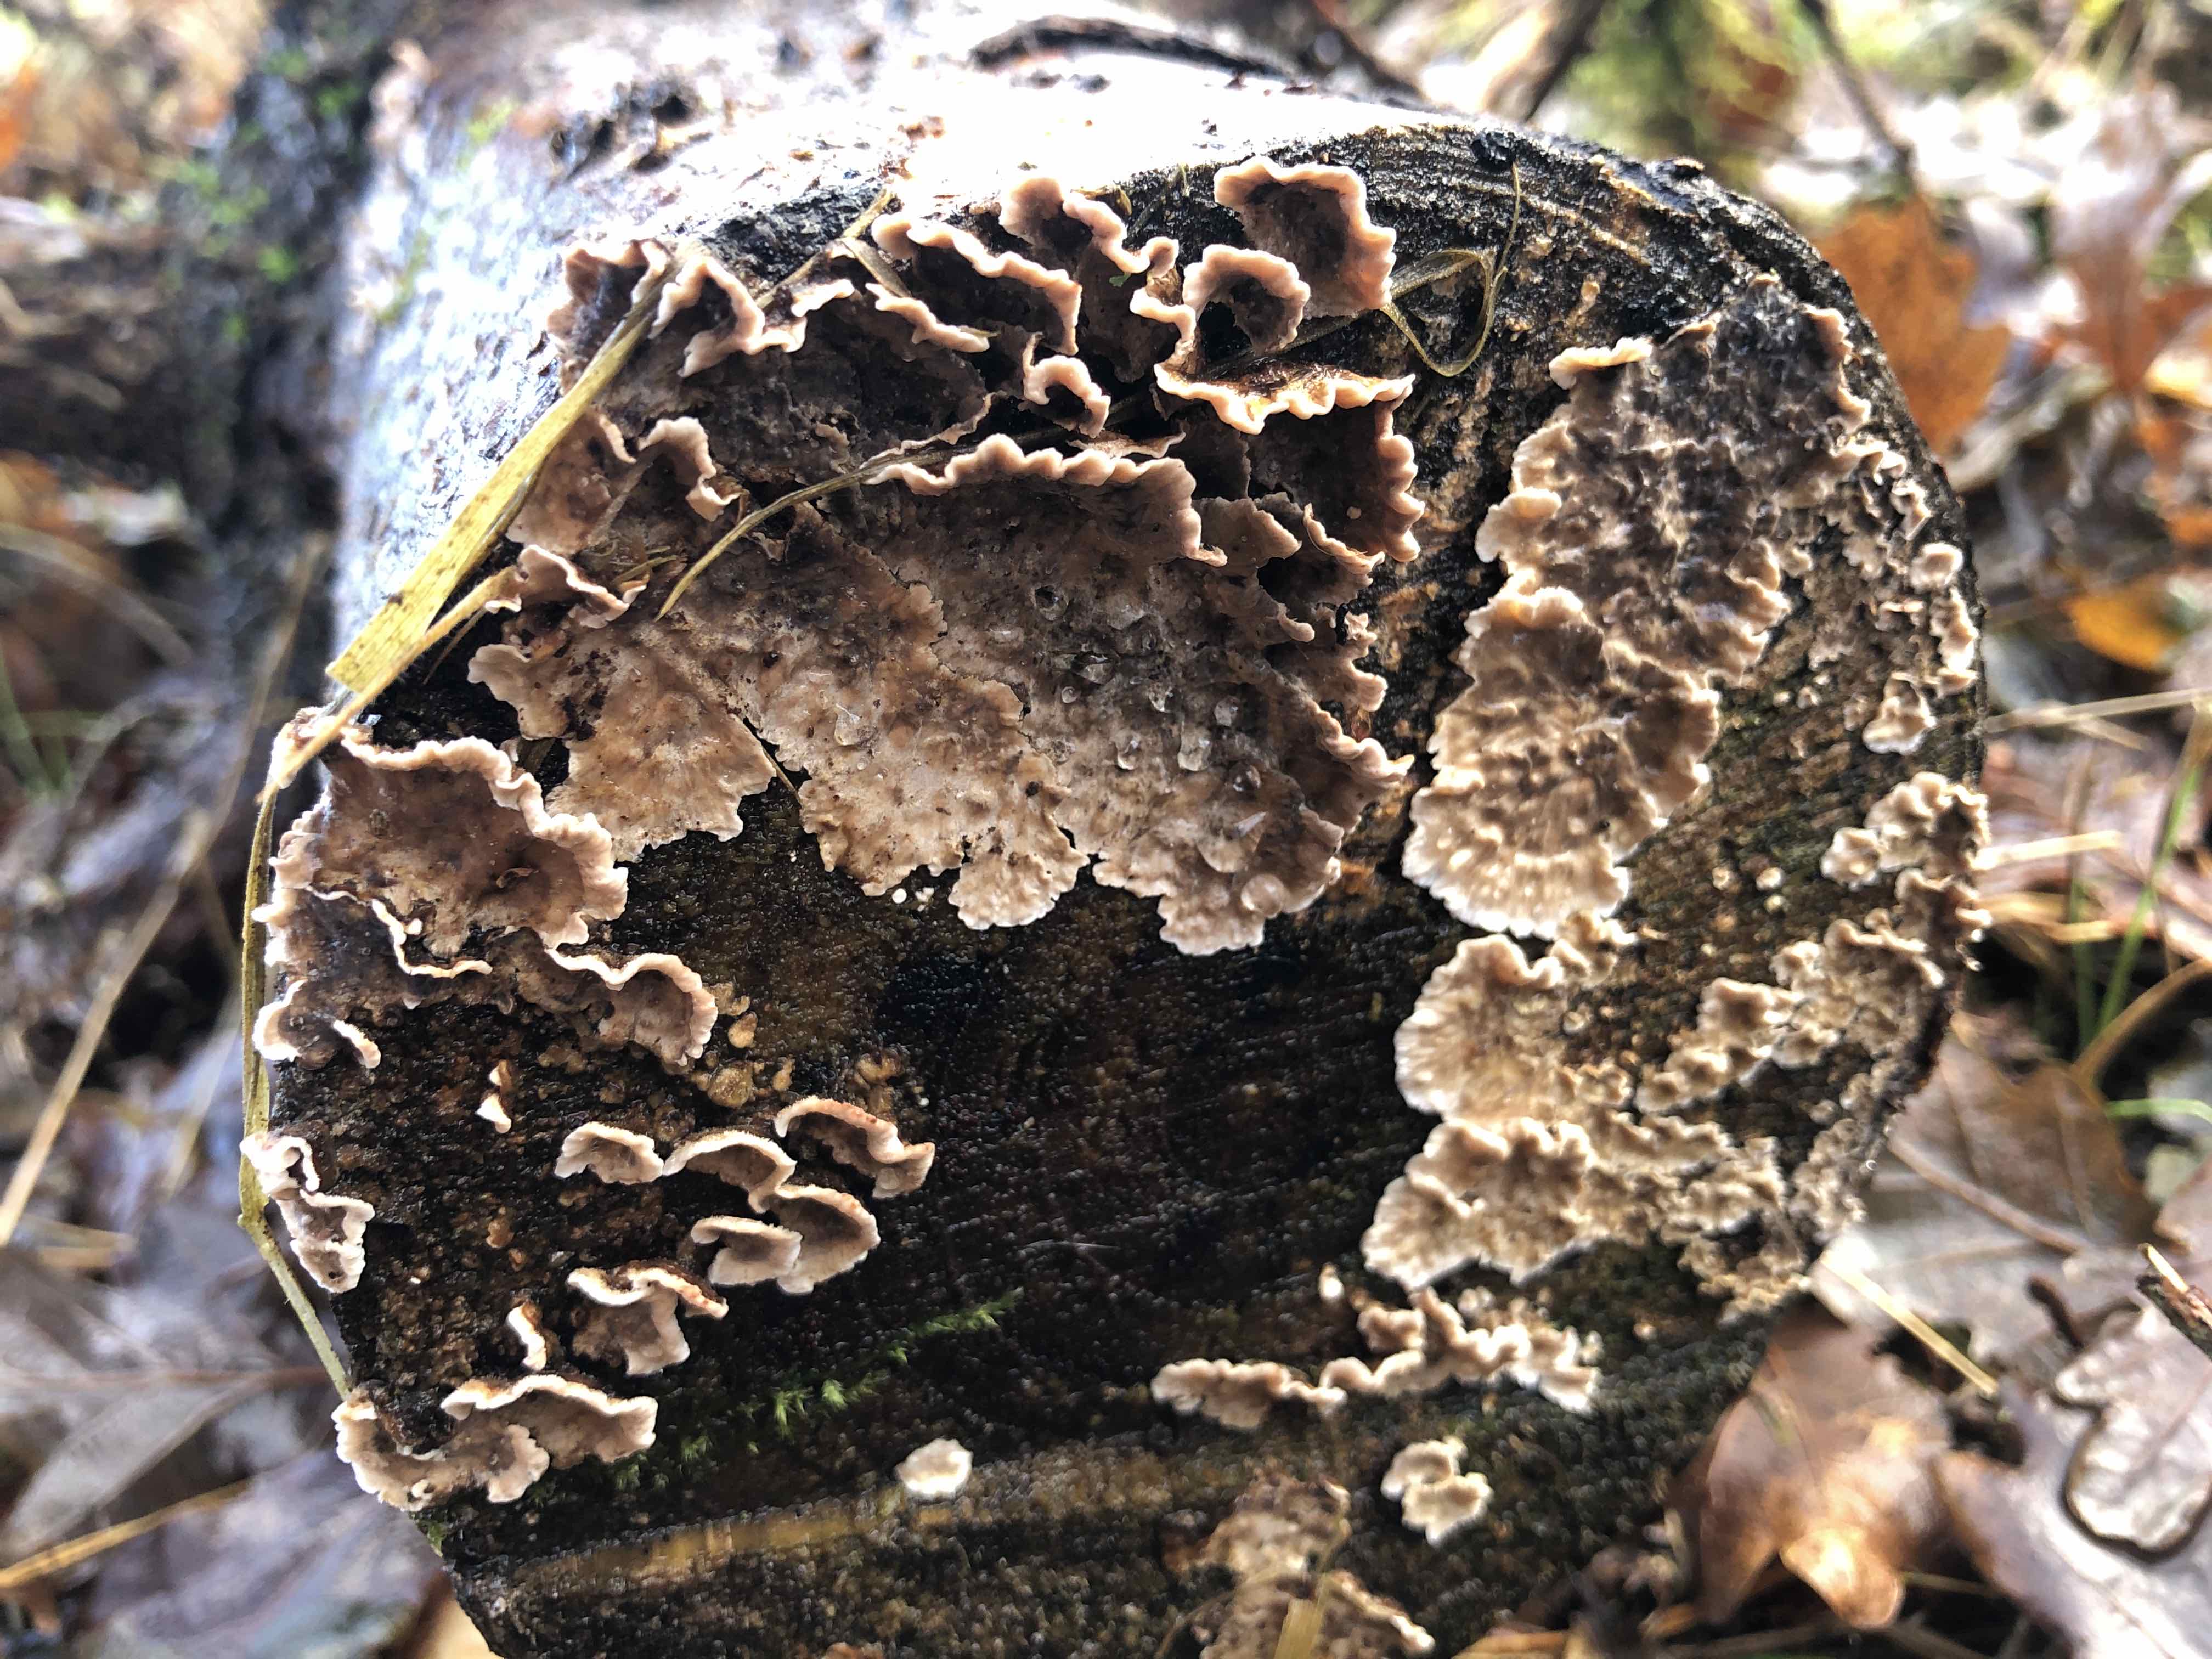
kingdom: Fungi
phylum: Basidiomycota
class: Agaricomycetes
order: Russulales
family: Stereaceae
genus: Stereum
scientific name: Stereum sanguinolentum
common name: blødende lædersvamp
